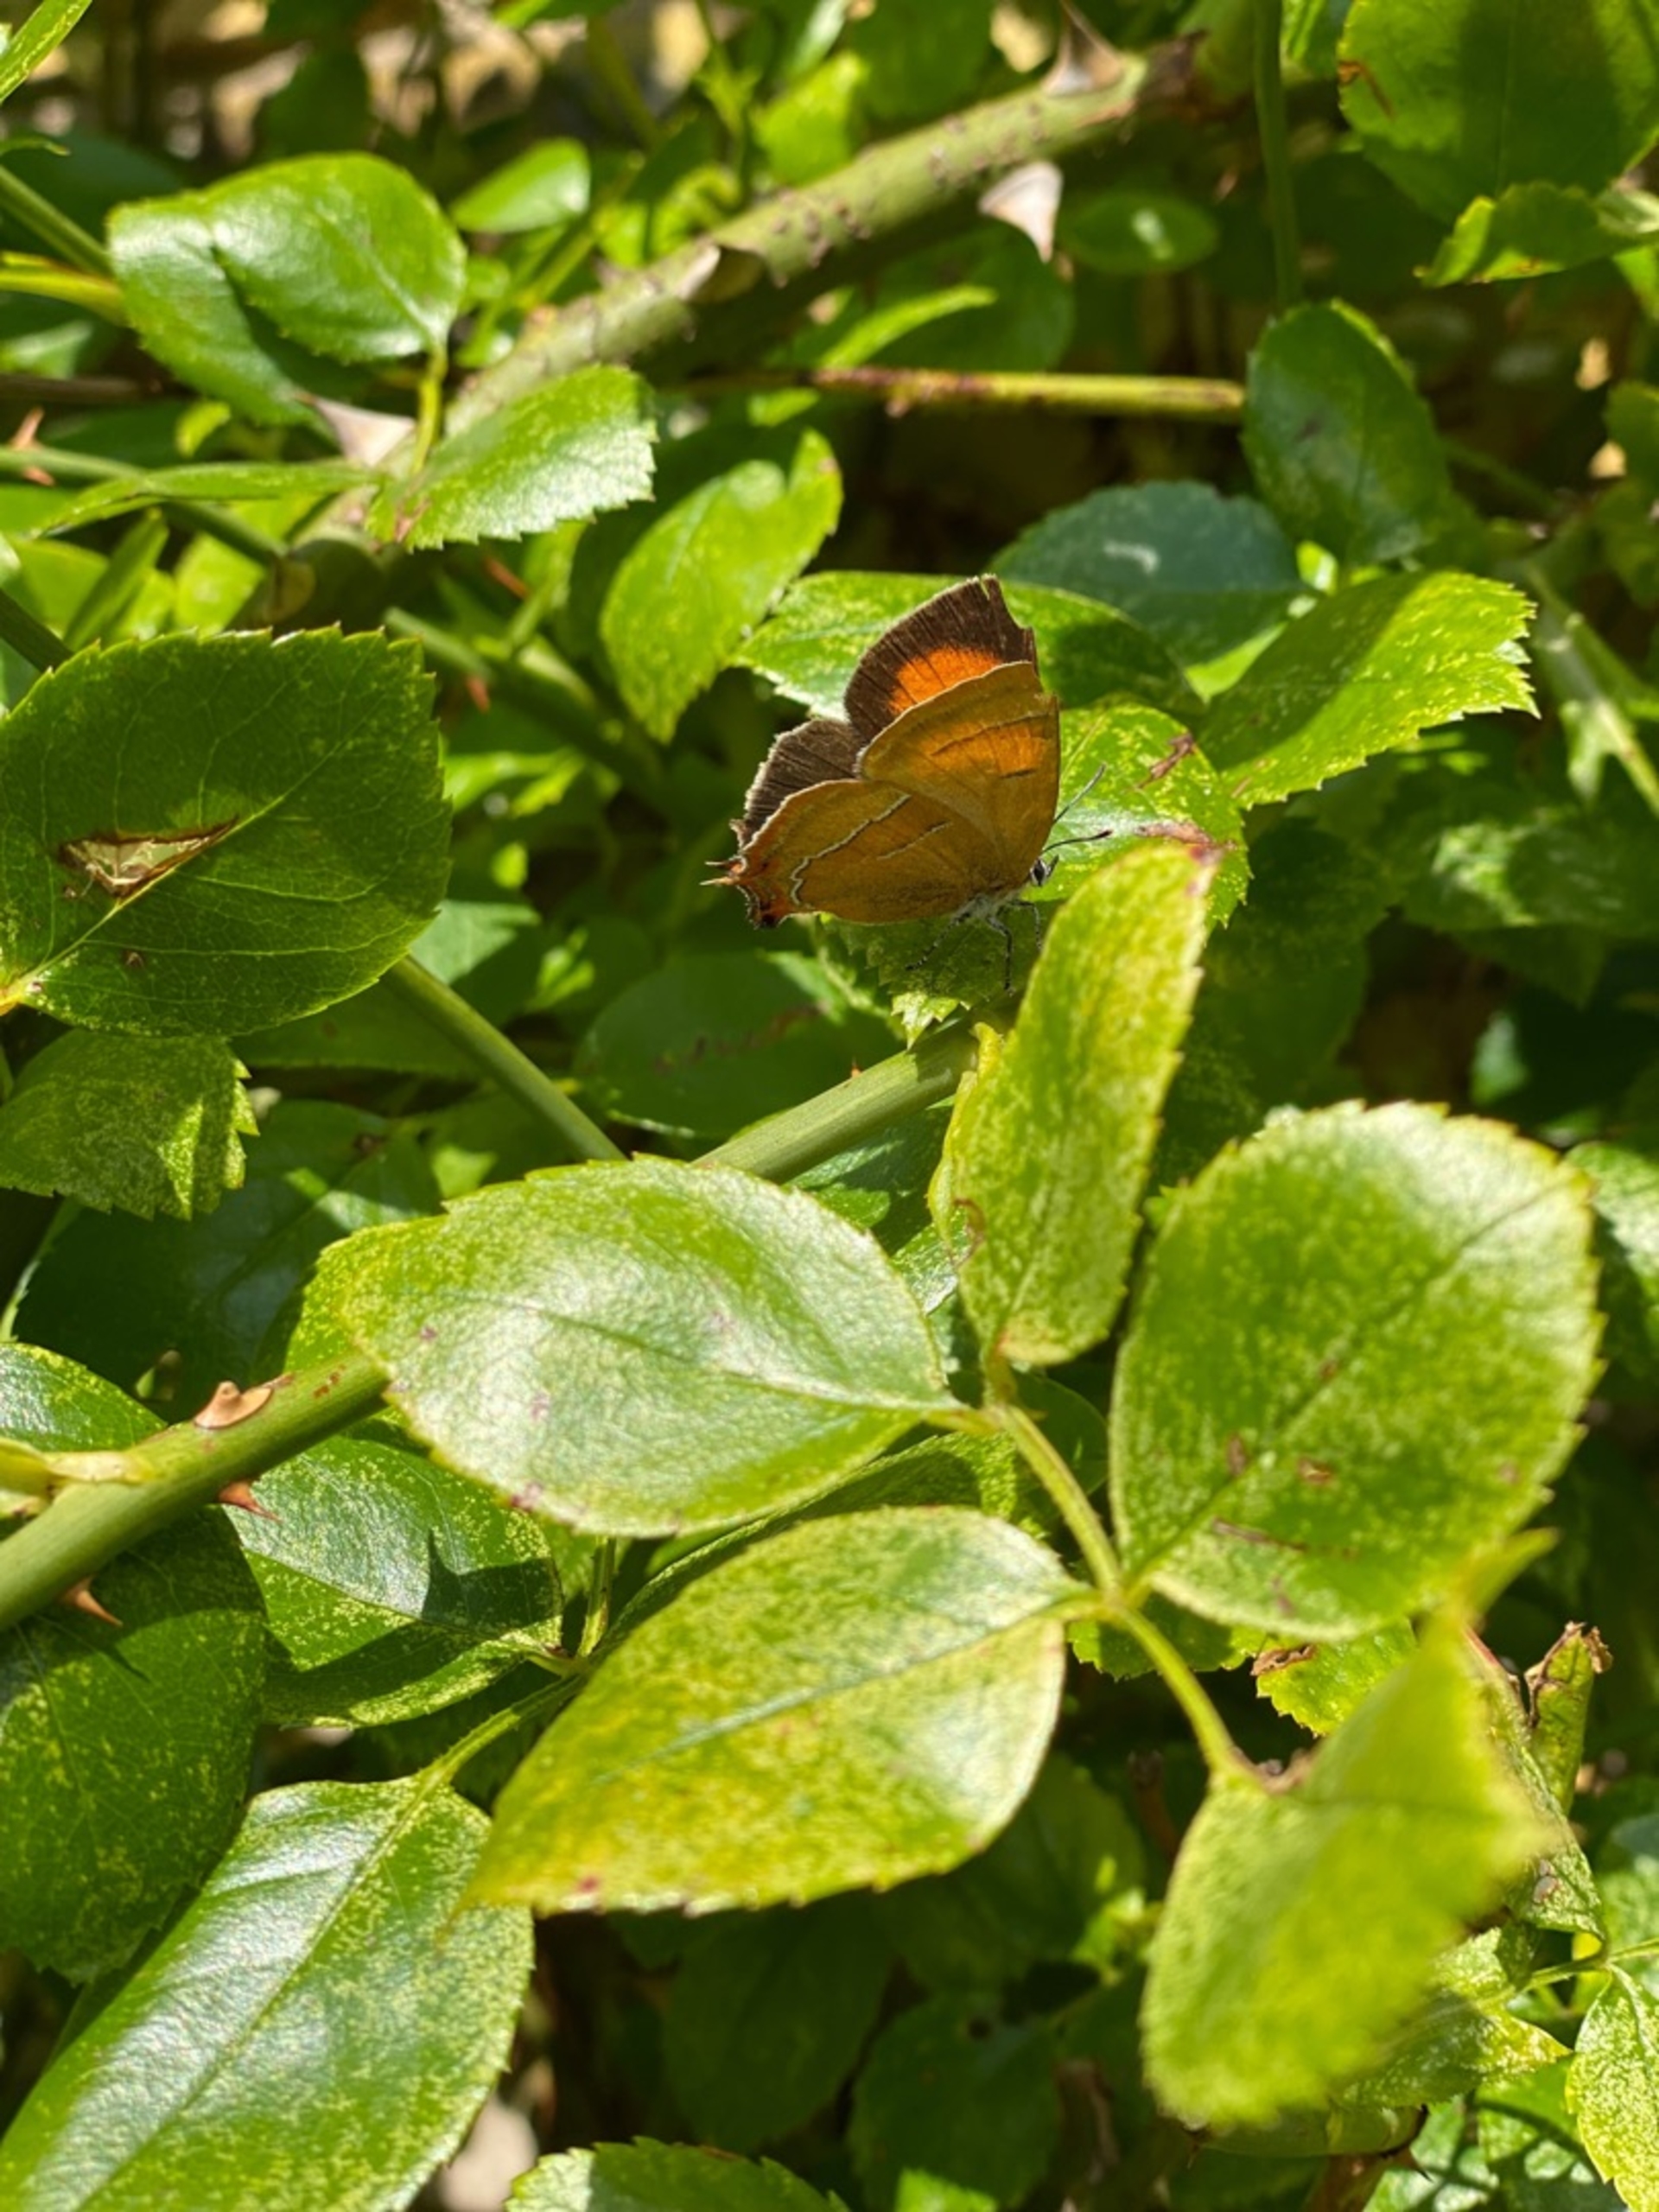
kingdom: Animalia
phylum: Arthropoda
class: Insecta
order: Lepidoptera
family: Lycaenidae
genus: Thecla
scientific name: Thecla betulae
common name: Guldhale
